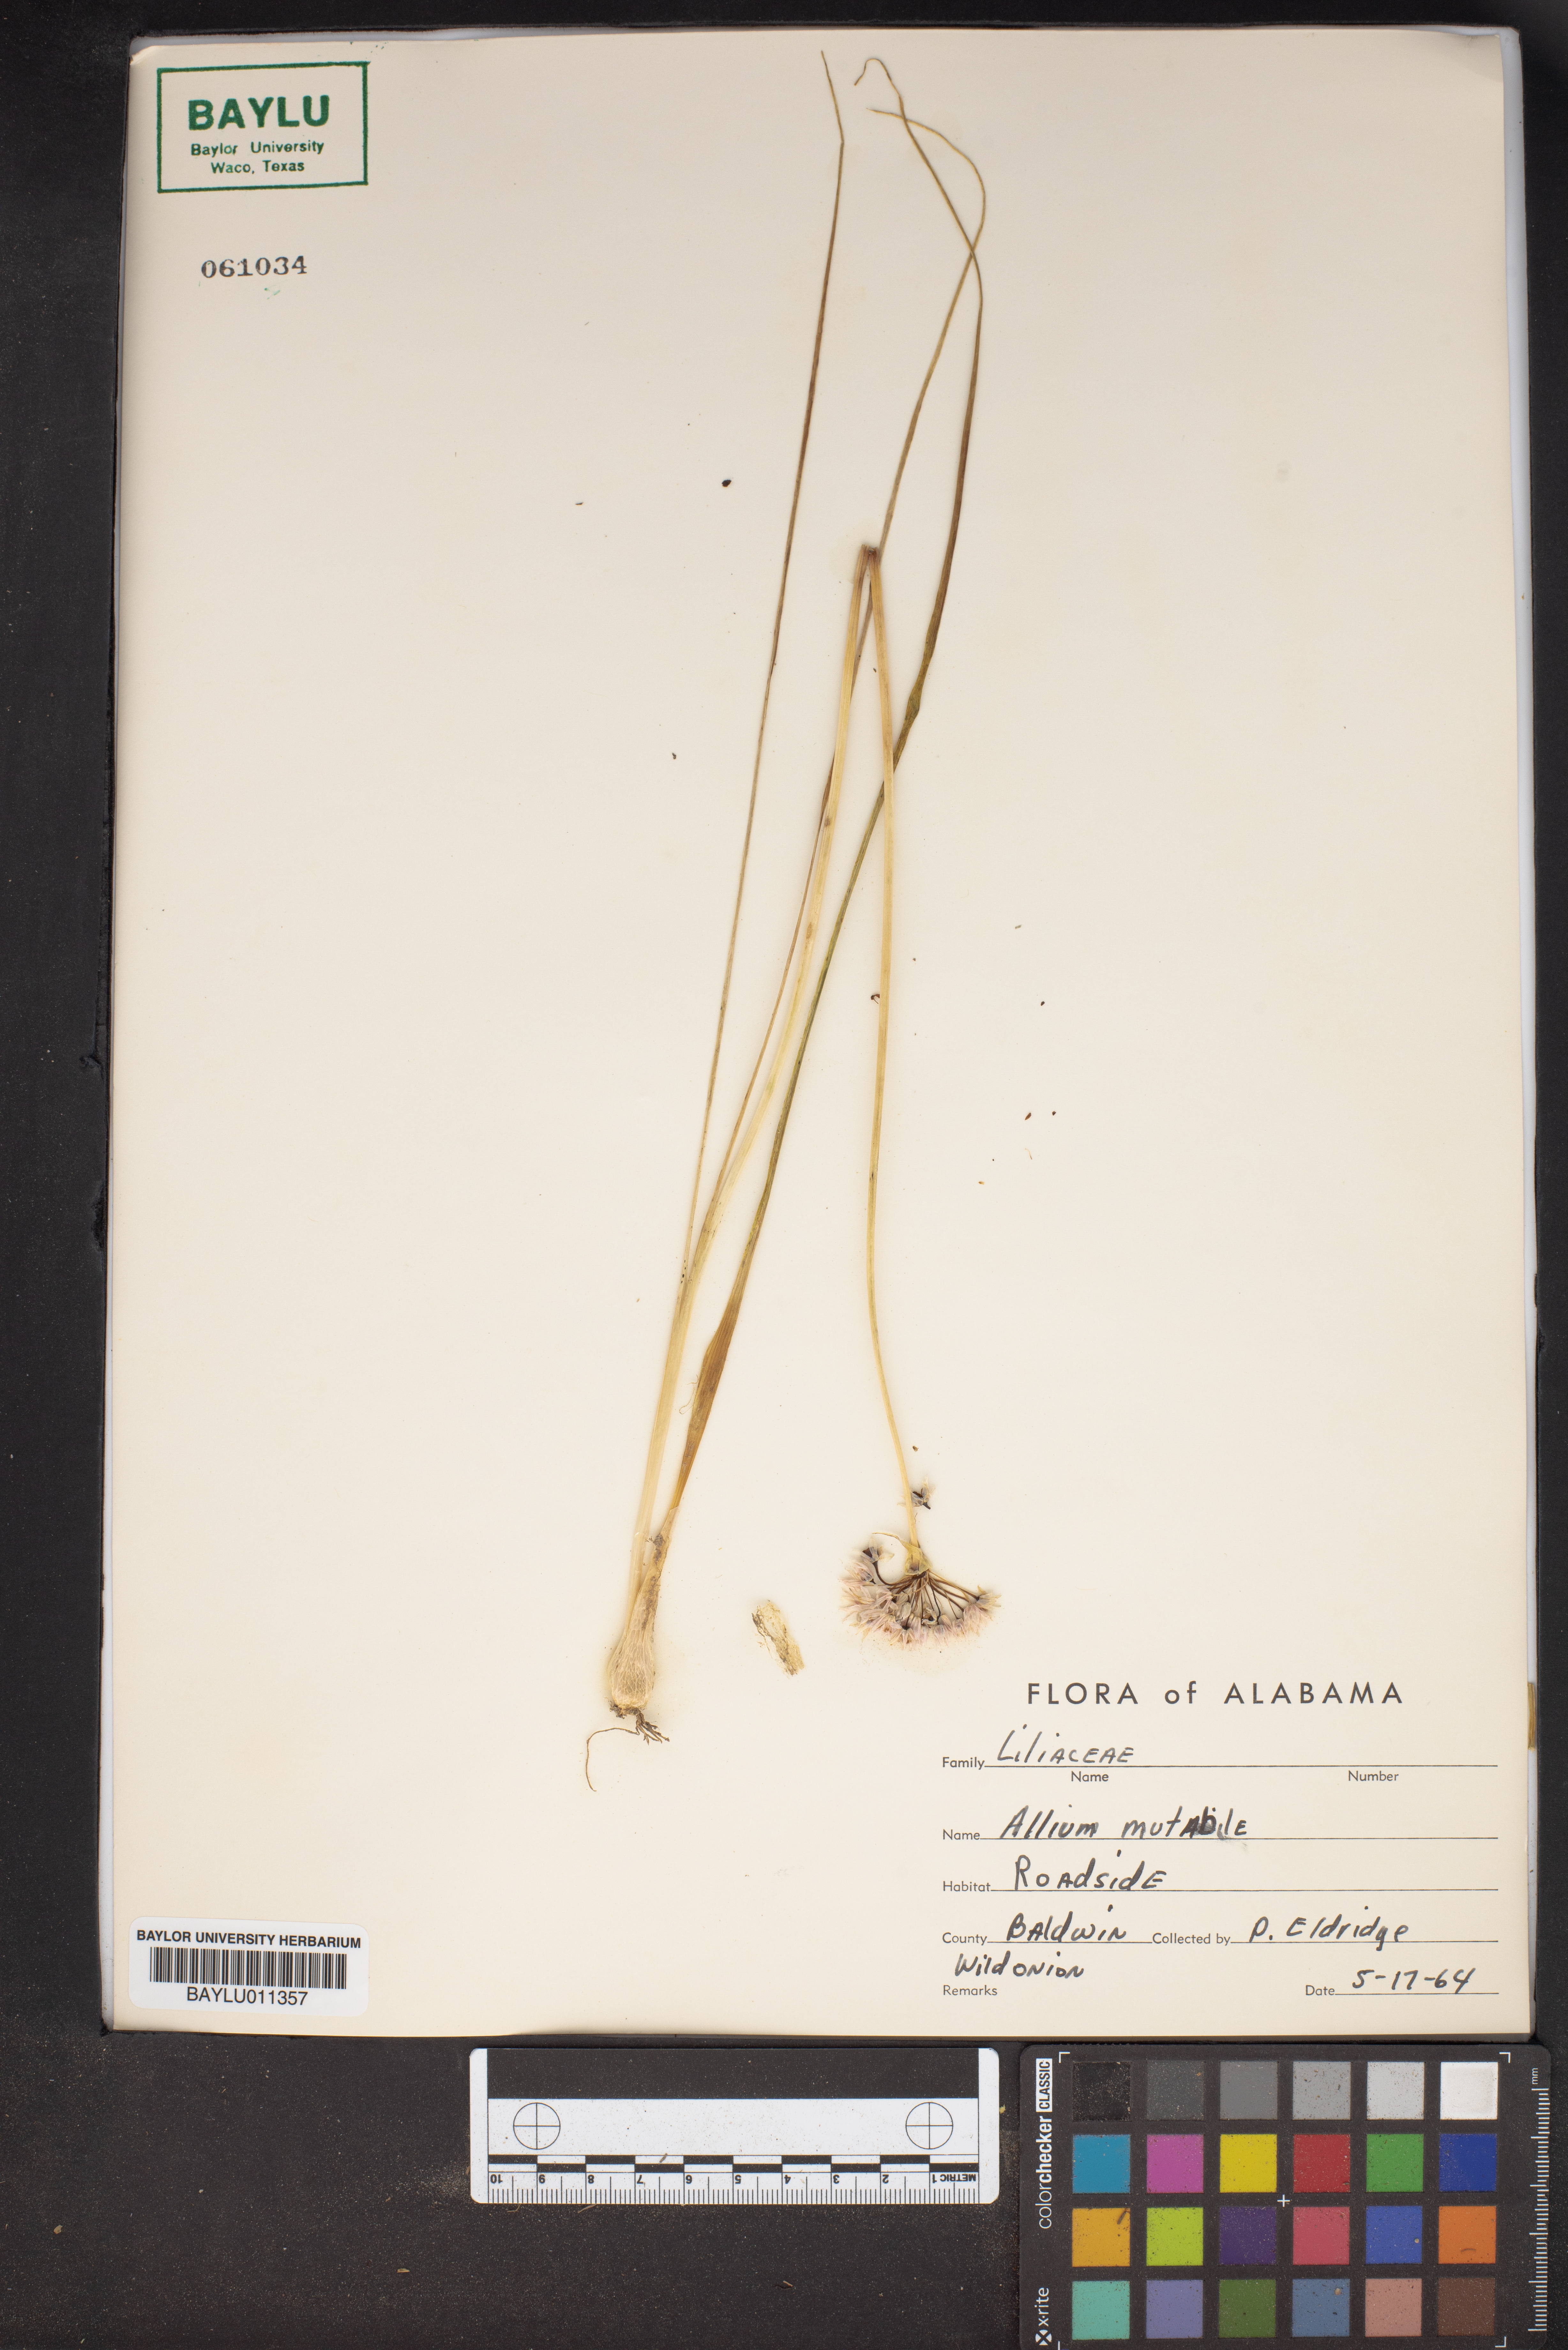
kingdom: Plantae
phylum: Tracheophyta
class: Liliopsida
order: Asparagales
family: Amaryllidaceae
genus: Allium
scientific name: Allium canadense
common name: Meadow garlic
